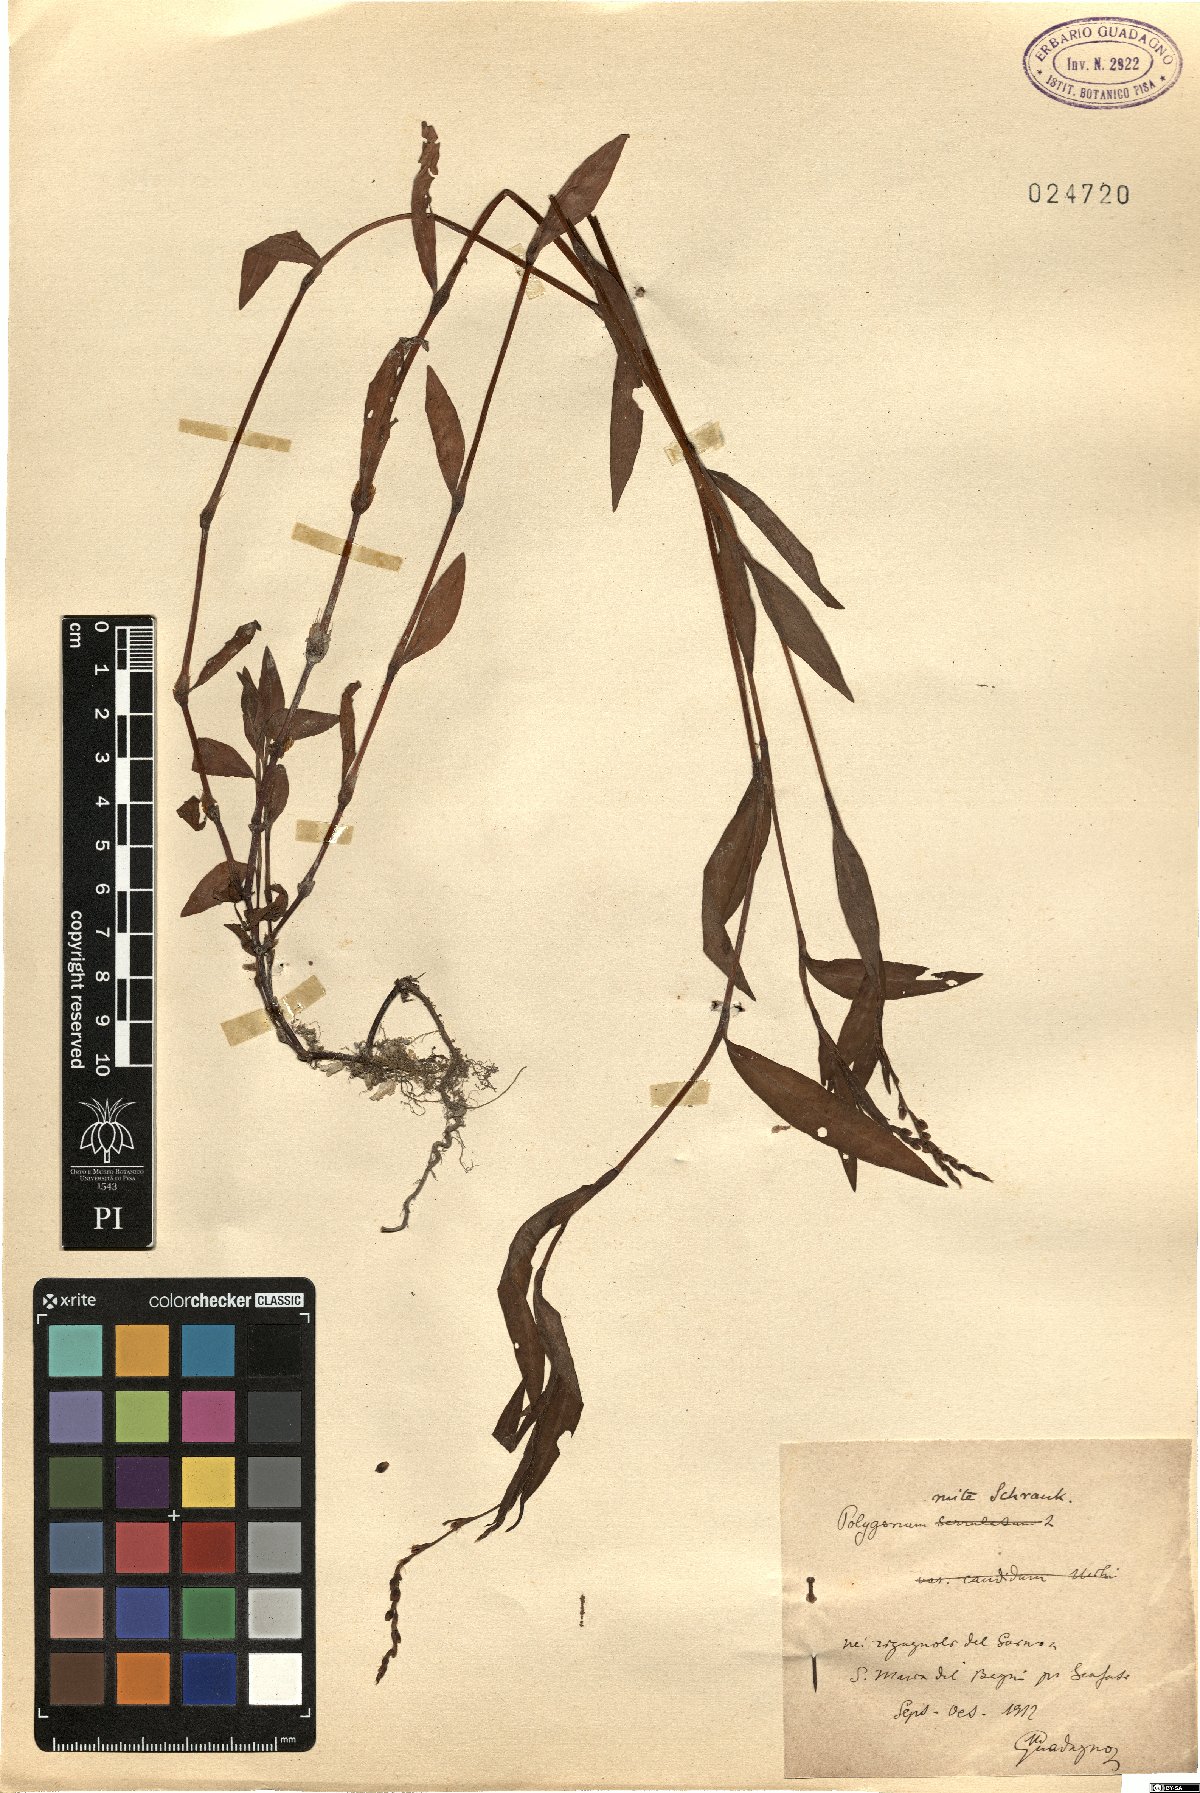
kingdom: Plantae
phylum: Tracheophyta
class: Magnoliopsida
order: Caryophyllales
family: Polygonaceae
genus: Persicaria
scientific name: Persicaria mitis
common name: Tasteless water-pepper
